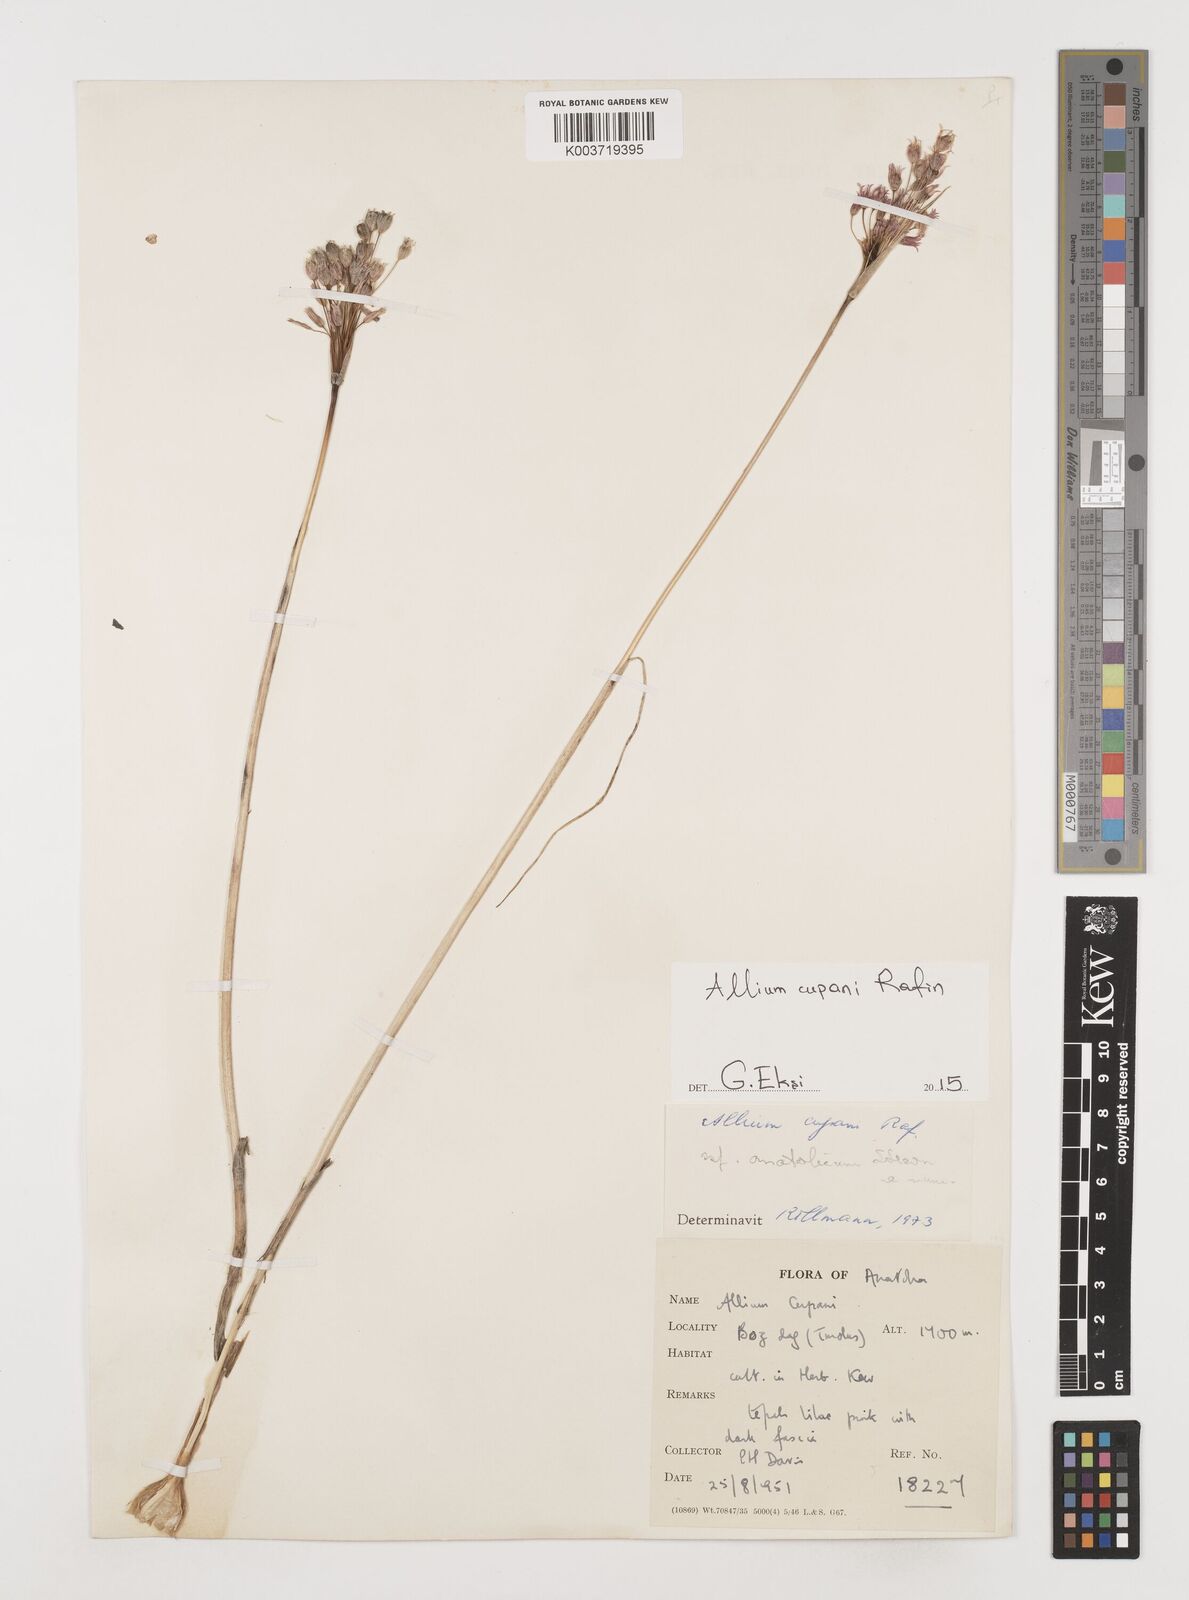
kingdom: Plantae
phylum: Tracheophyta
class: Liliopsida
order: Asparagales
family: Amaryllidaceae
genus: Allium
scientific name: Allium cupani
